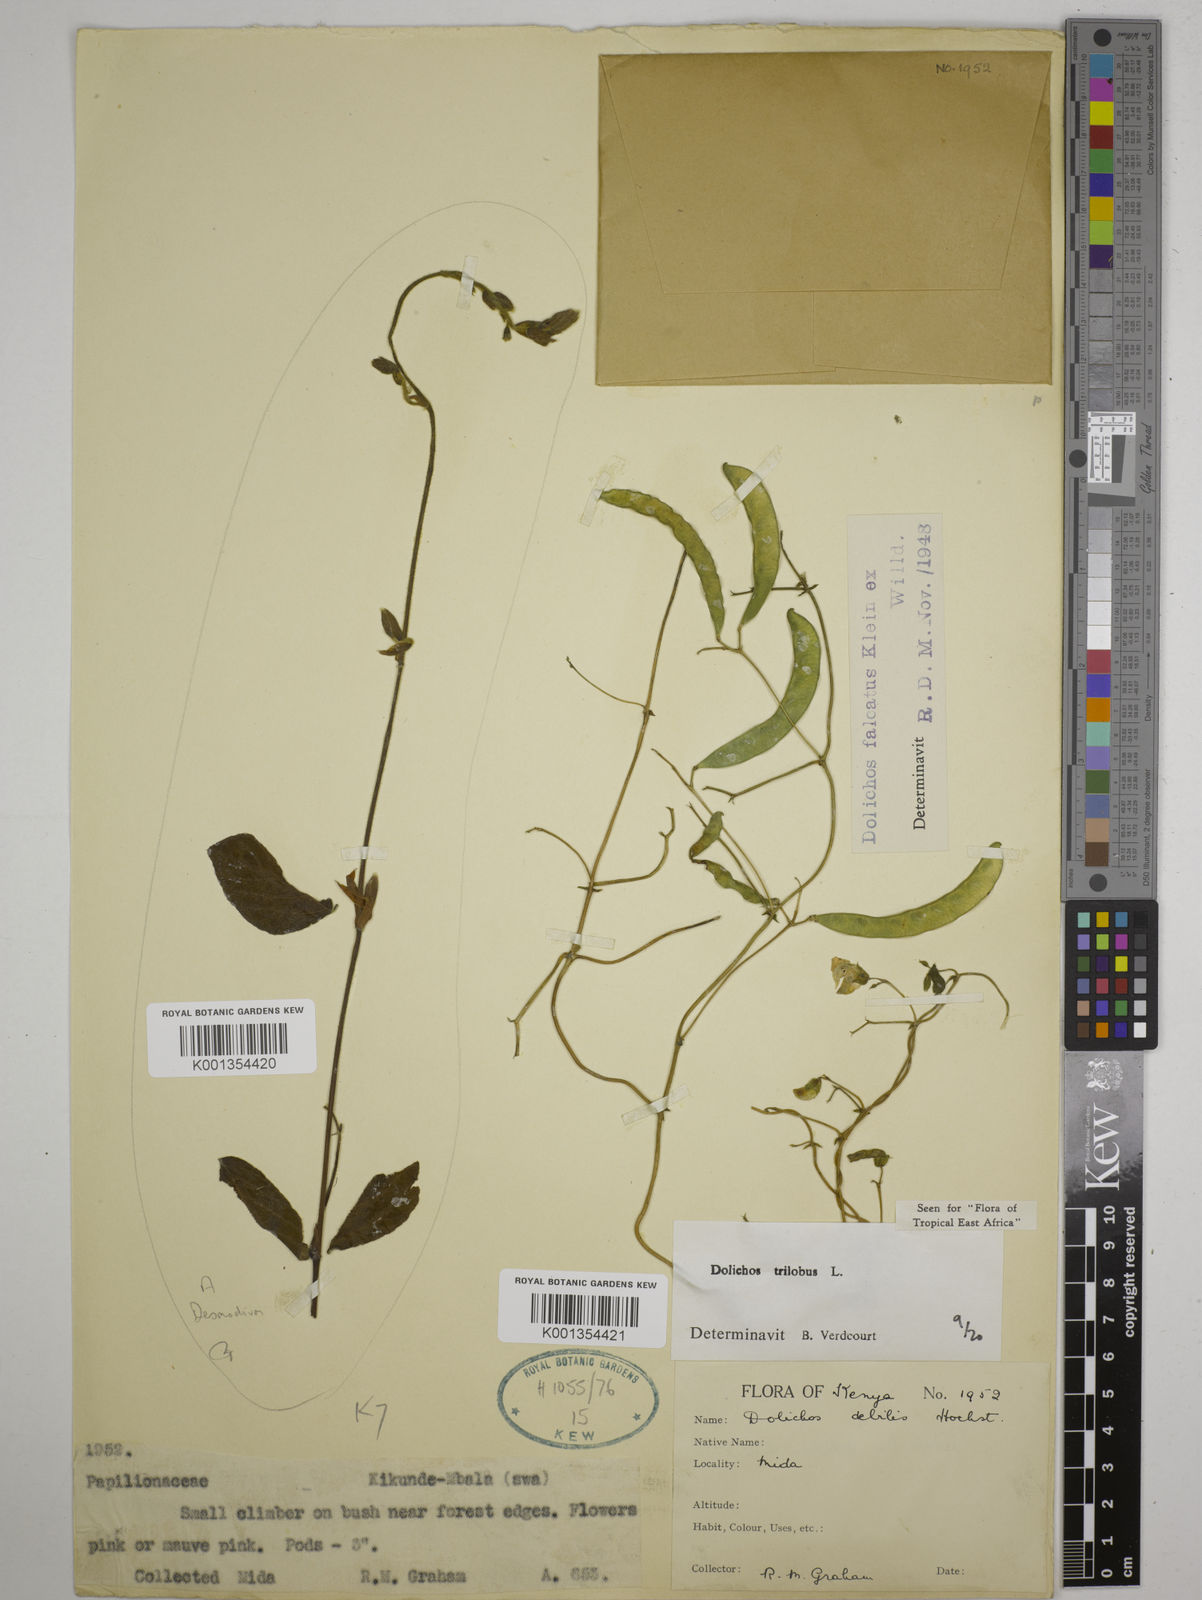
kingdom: Plantae
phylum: Tracheophyta
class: Magnoliopsida
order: Fabales
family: Fabaceae
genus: Dolichos
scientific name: Dolichos
